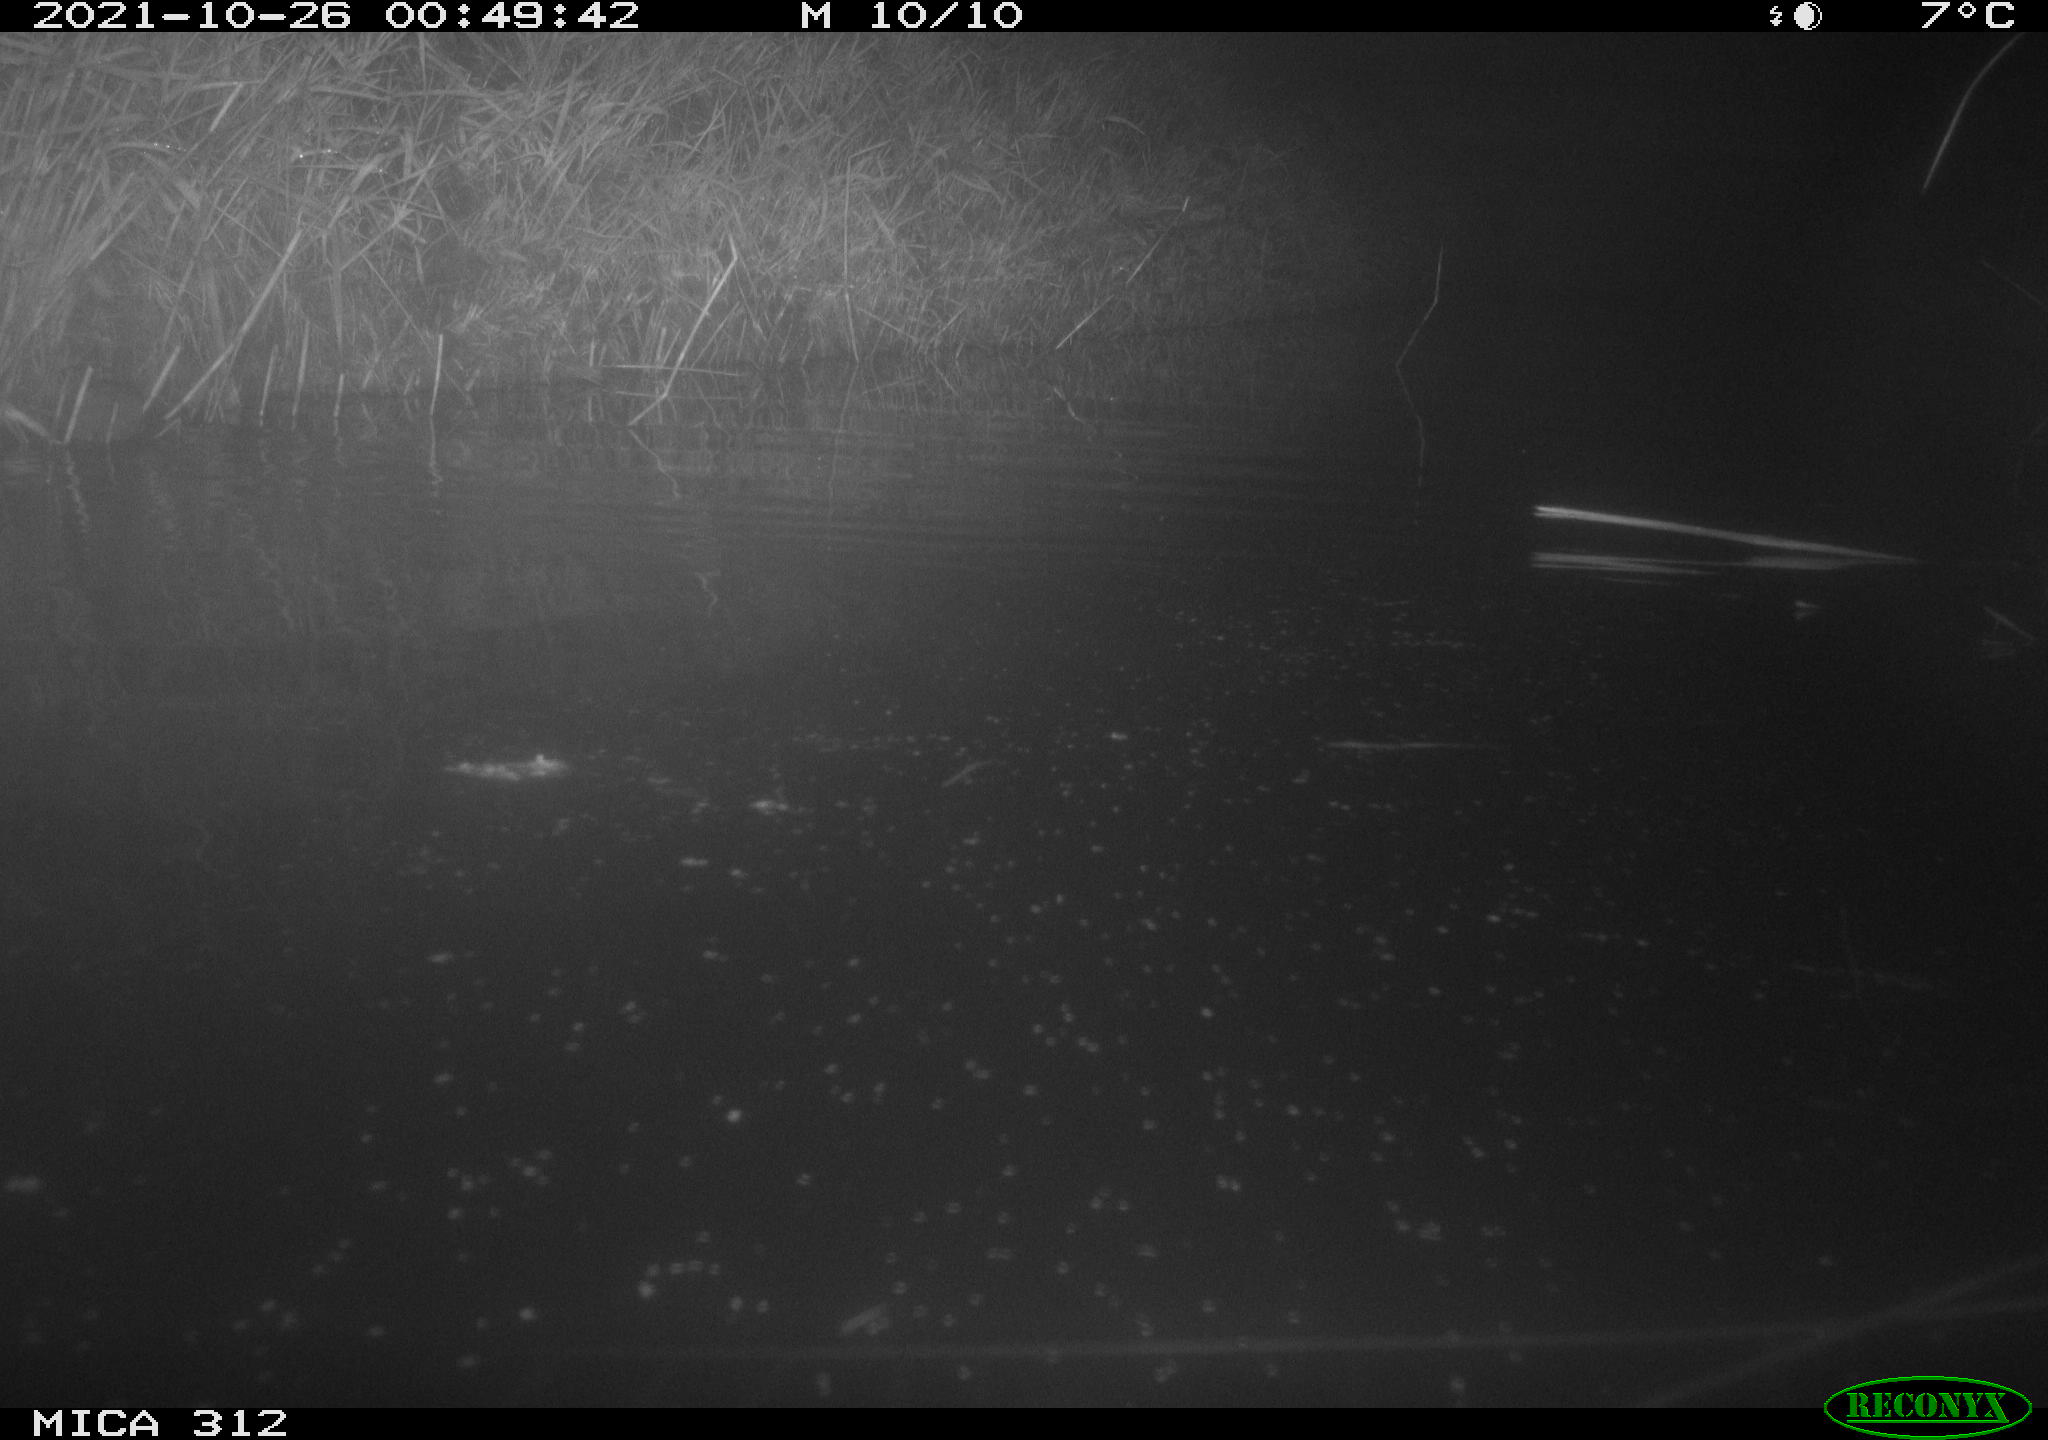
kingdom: Animalia
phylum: Chordata
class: Mammalia
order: Rodentia
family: Muridae
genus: Rattus
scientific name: Rattus norvegicus
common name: Brown rat
